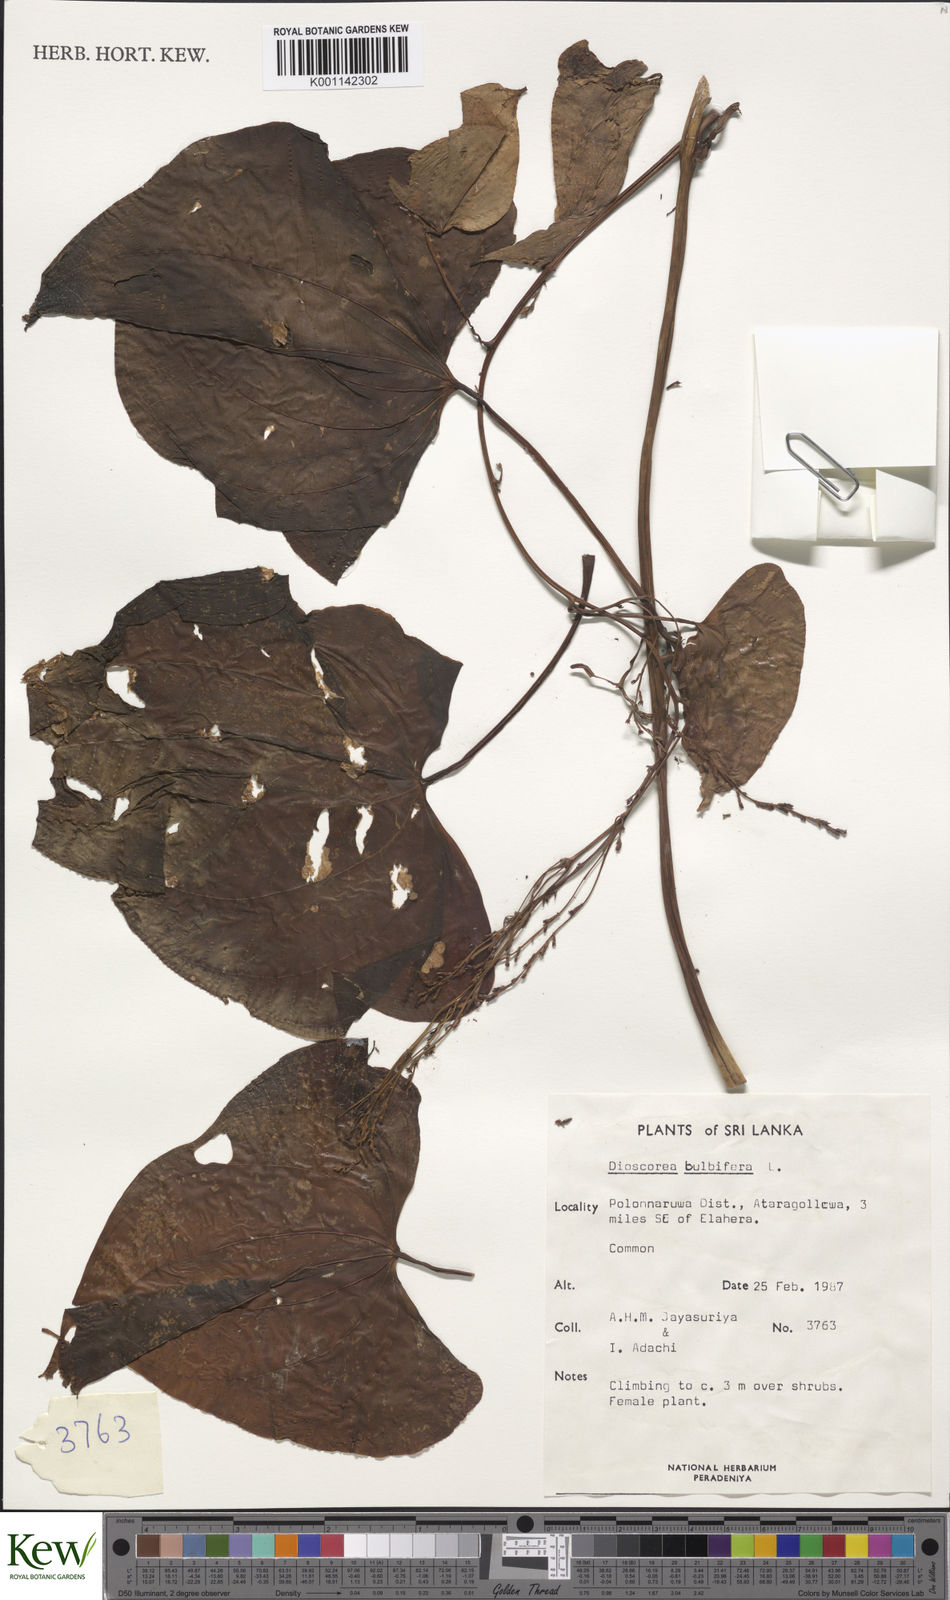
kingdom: Plantae
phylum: Tracheophyta
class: Liliopsida
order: Dioscoreales
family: Dioscoreaceae
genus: Dioscorea
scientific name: Dioscorea bulbifera
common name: Air yam
